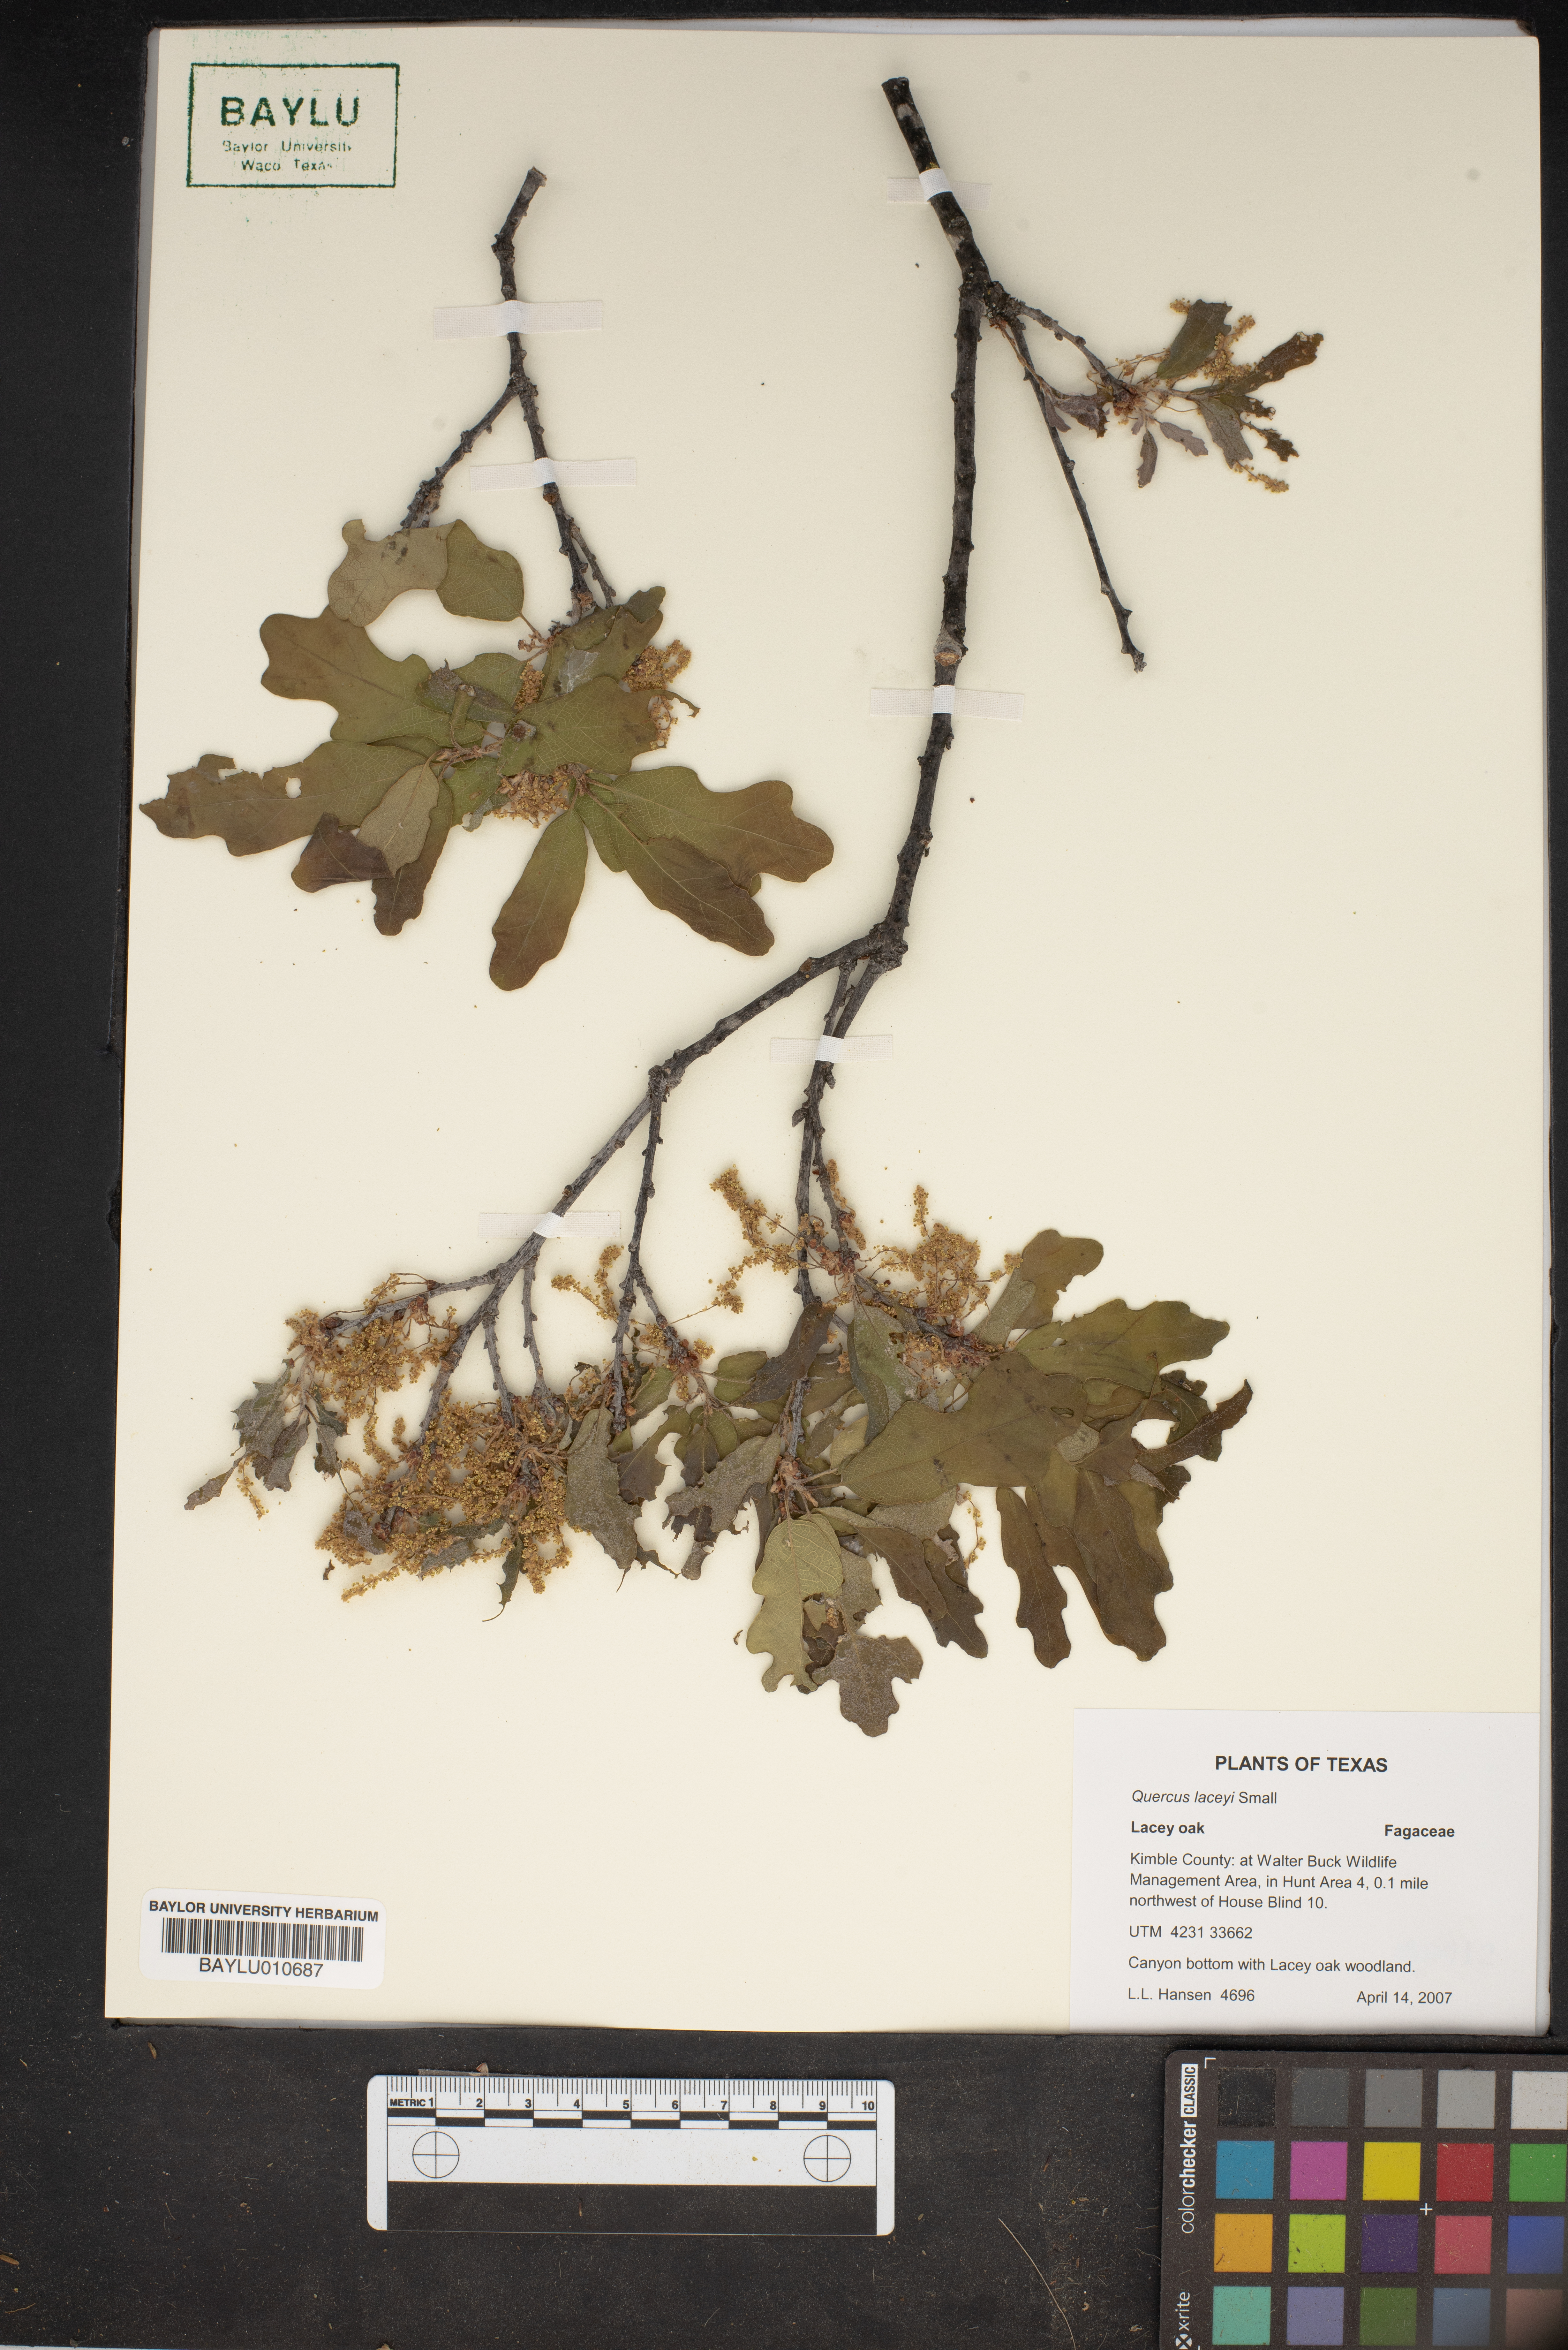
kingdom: Plantae
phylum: Tracheophyta
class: Magnoliopsida
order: Fagales
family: Fagaceae
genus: Quercus
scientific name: Quercus laceyi
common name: Lacey oak
